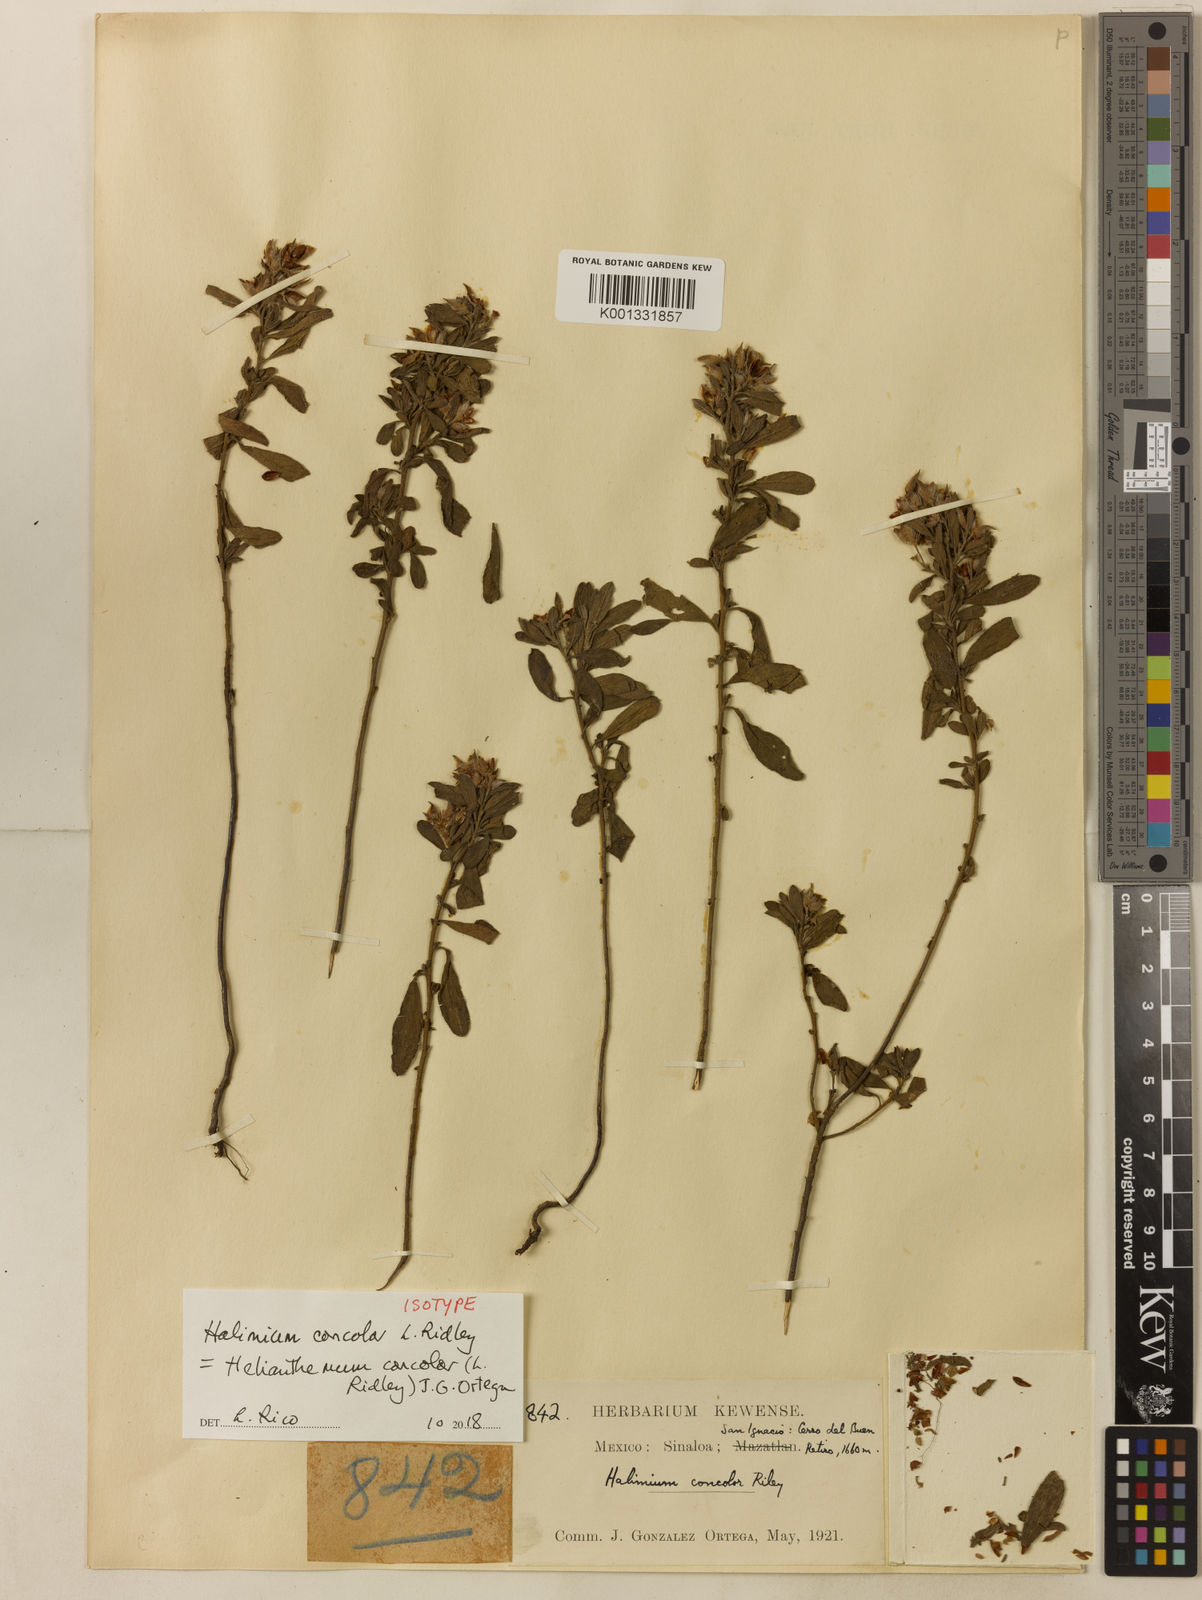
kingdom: Plantae
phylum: Tracheophyta
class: Magnoliopsida
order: Malvales
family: Cistaceae
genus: Crocanthemum
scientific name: Crocanthemum exaltatum
